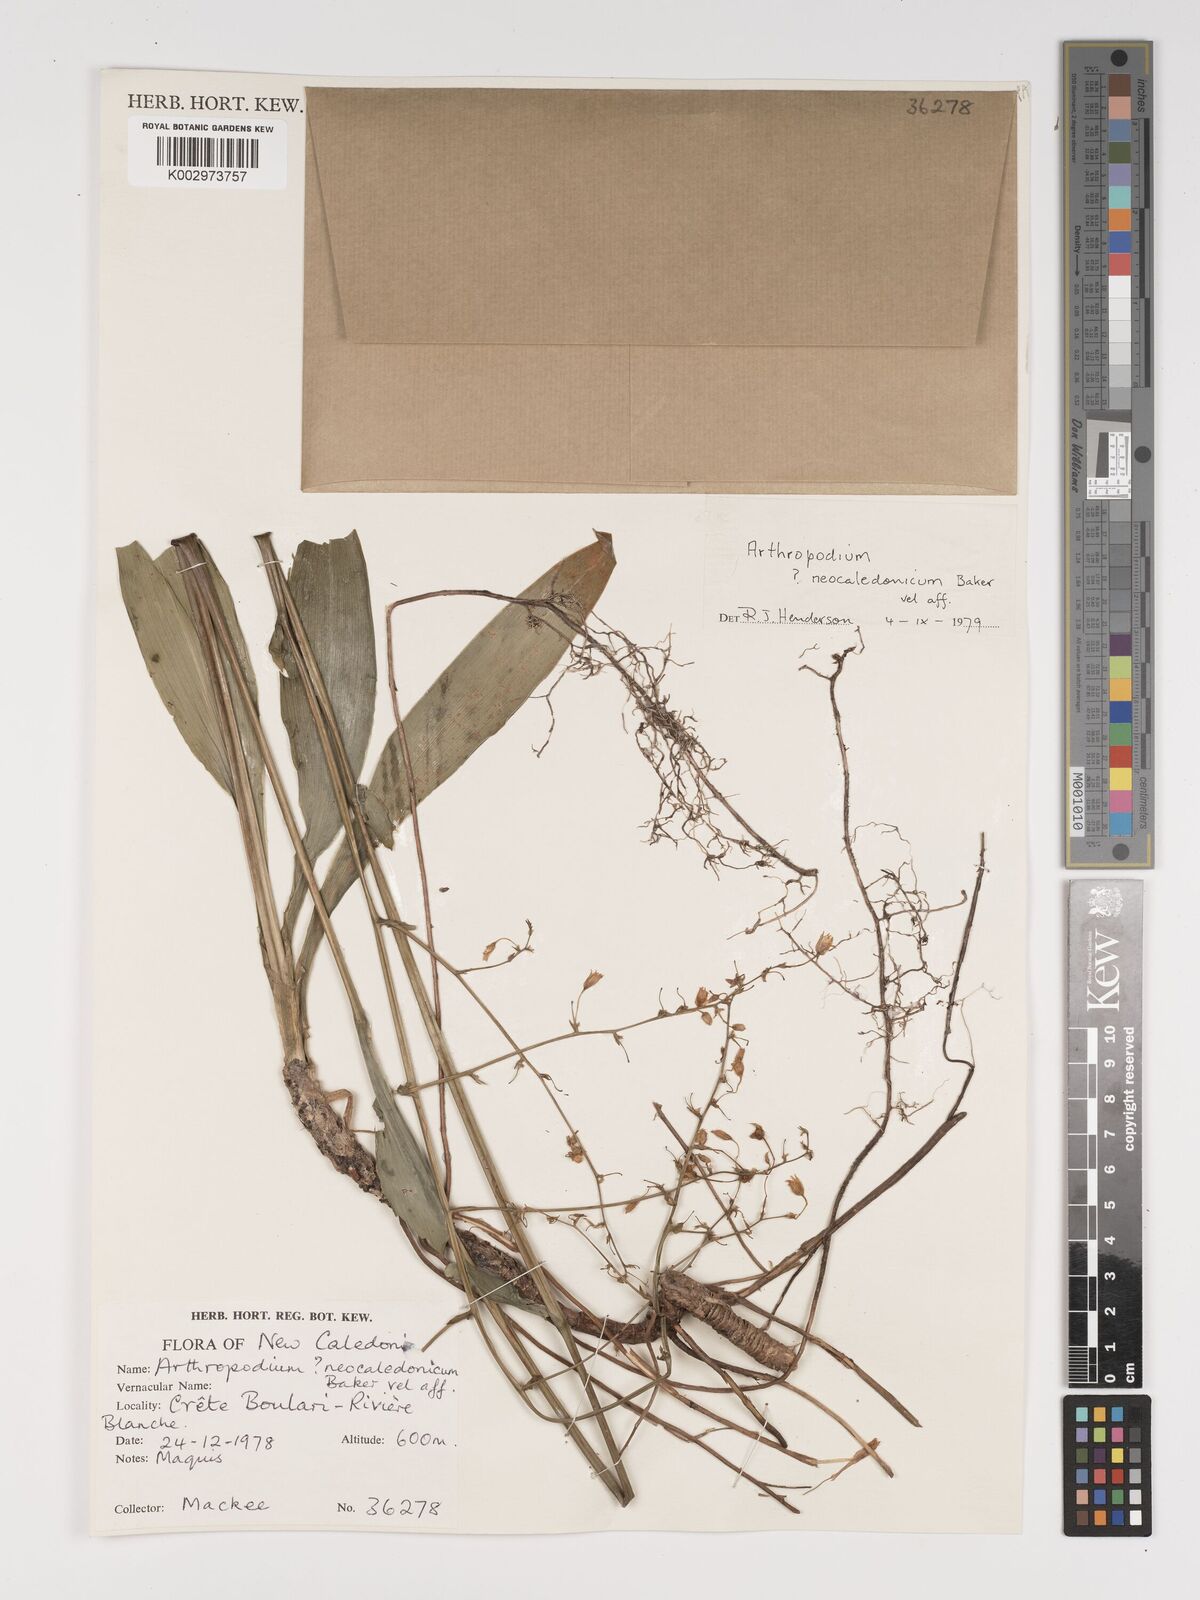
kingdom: Plantae
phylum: Tracheophyta
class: Liliopsida
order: Asparagales
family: Asparagaceae
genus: Arthropodium
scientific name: Arthropodium
